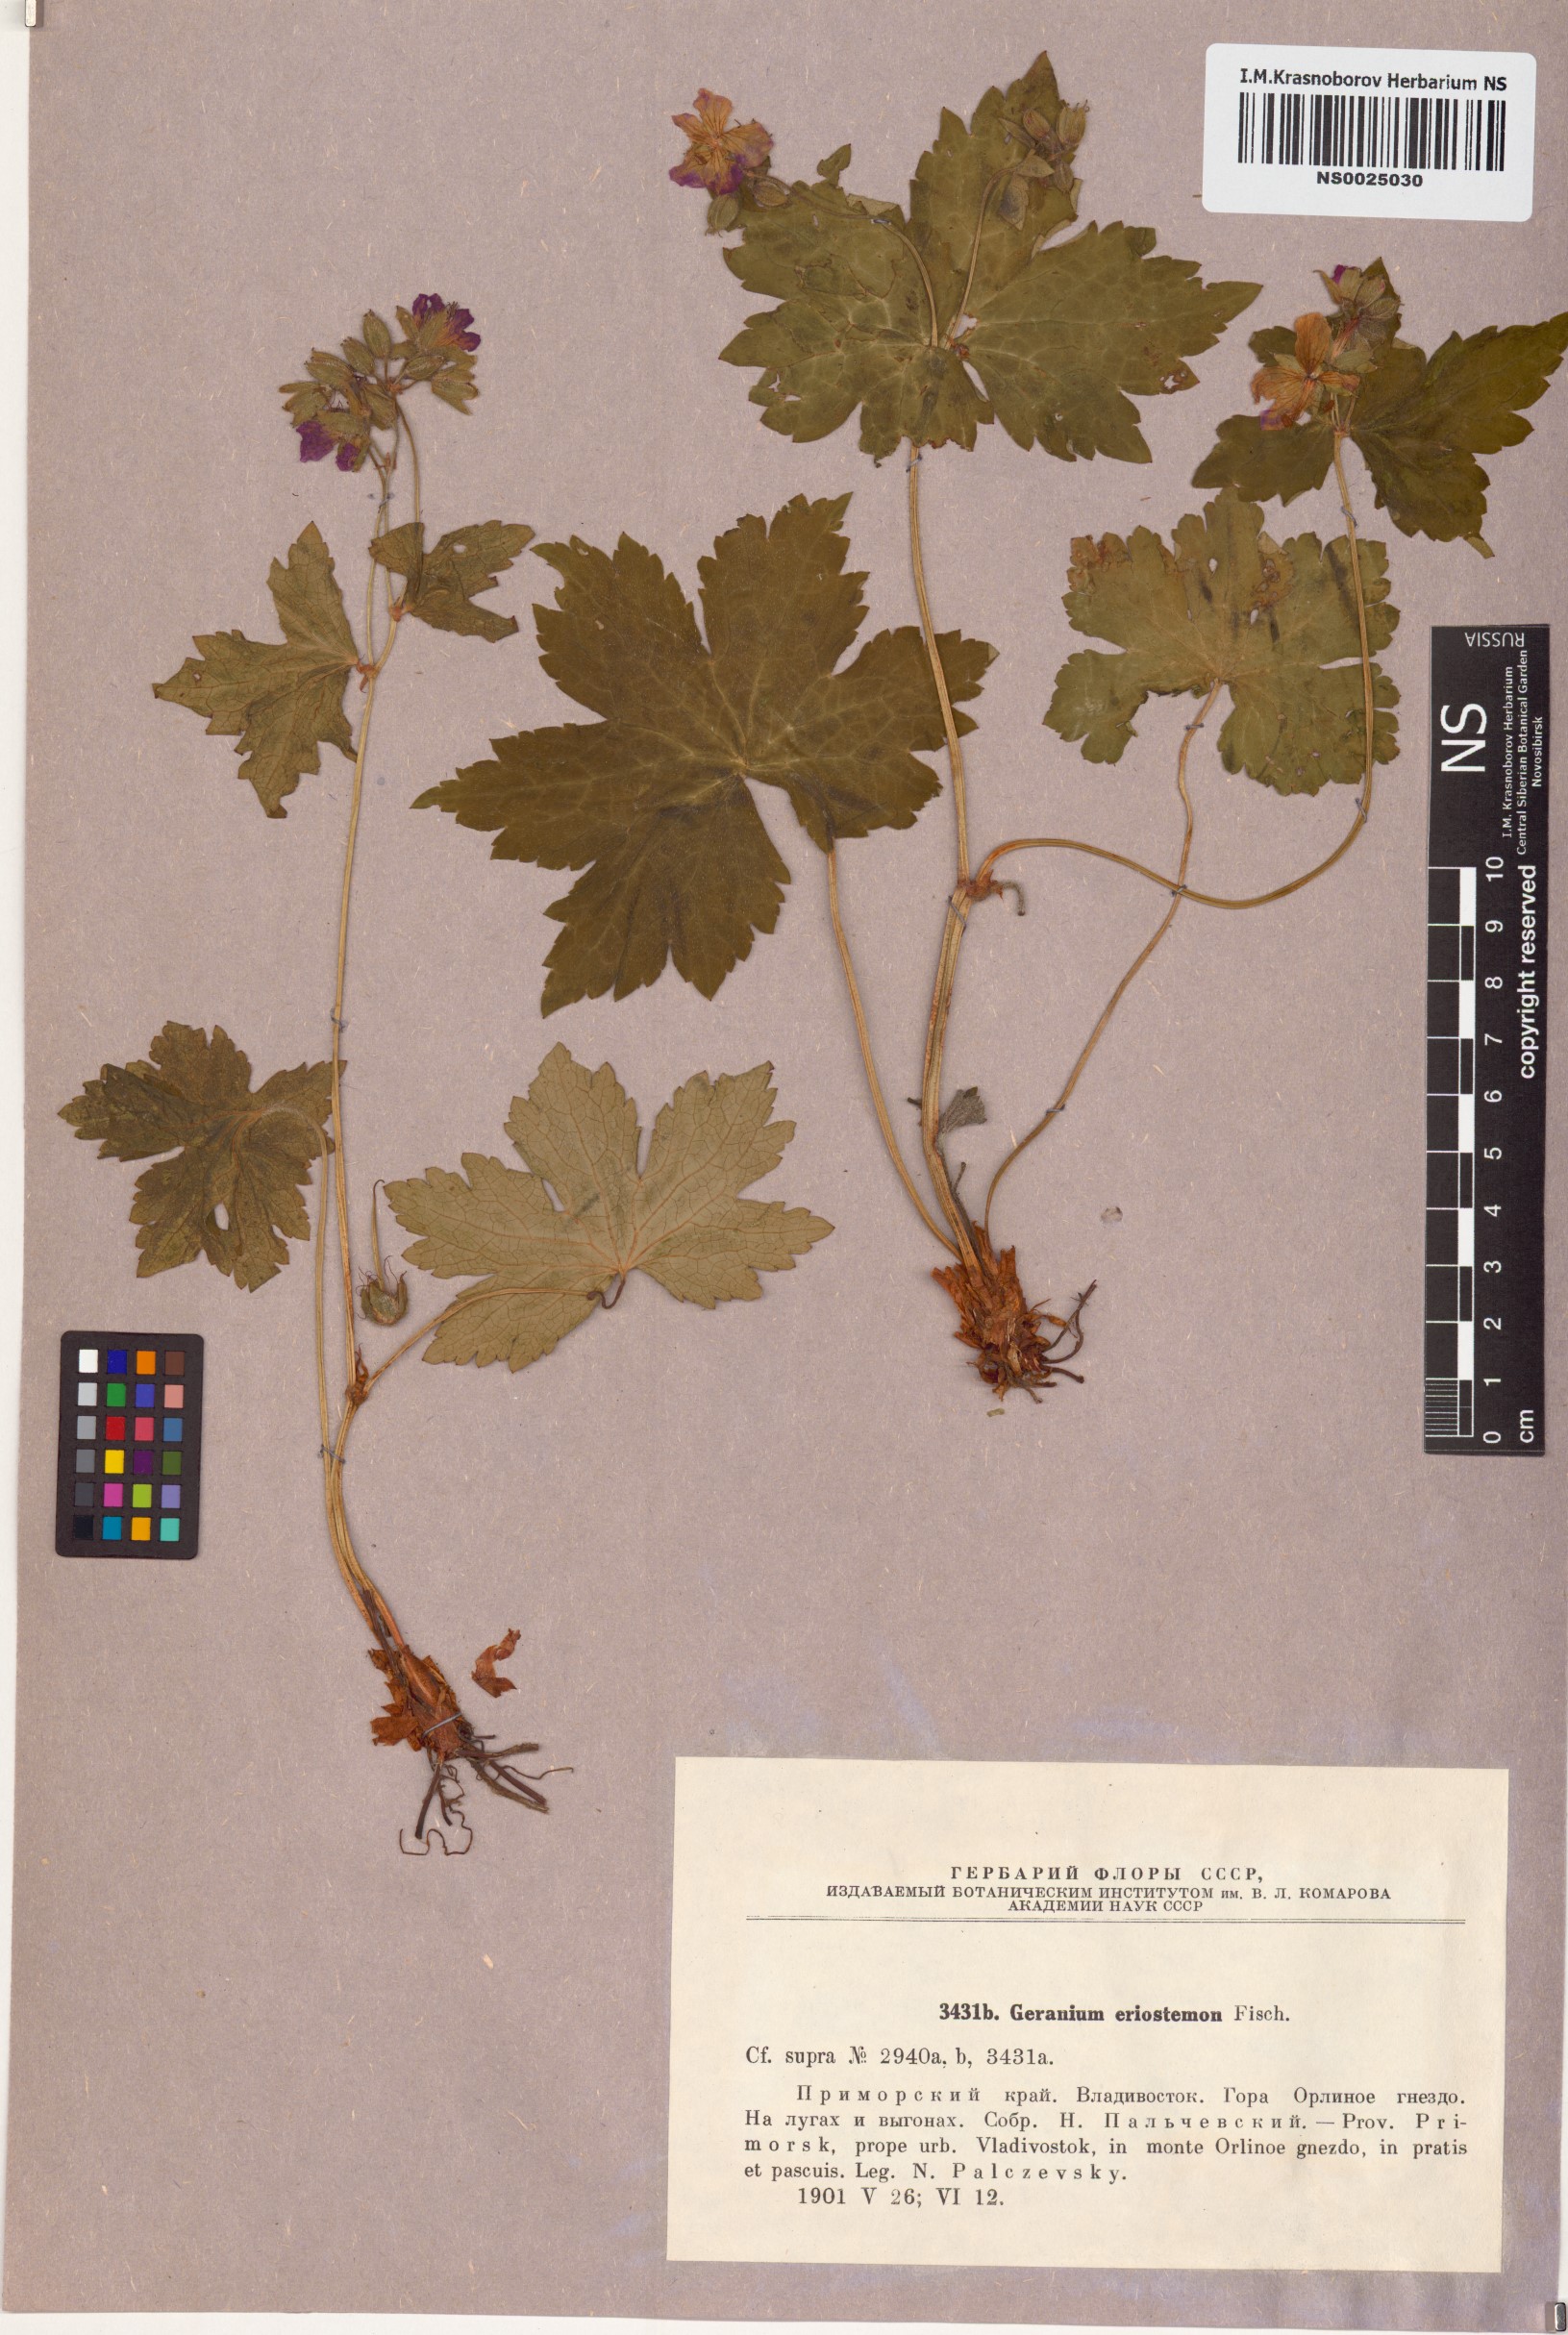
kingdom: Plantae
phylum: Tracheophyta
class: Magnoliopsida
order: Geraniales
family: Geraniaceae
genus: Geranium
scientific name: Geranium platyanthum
